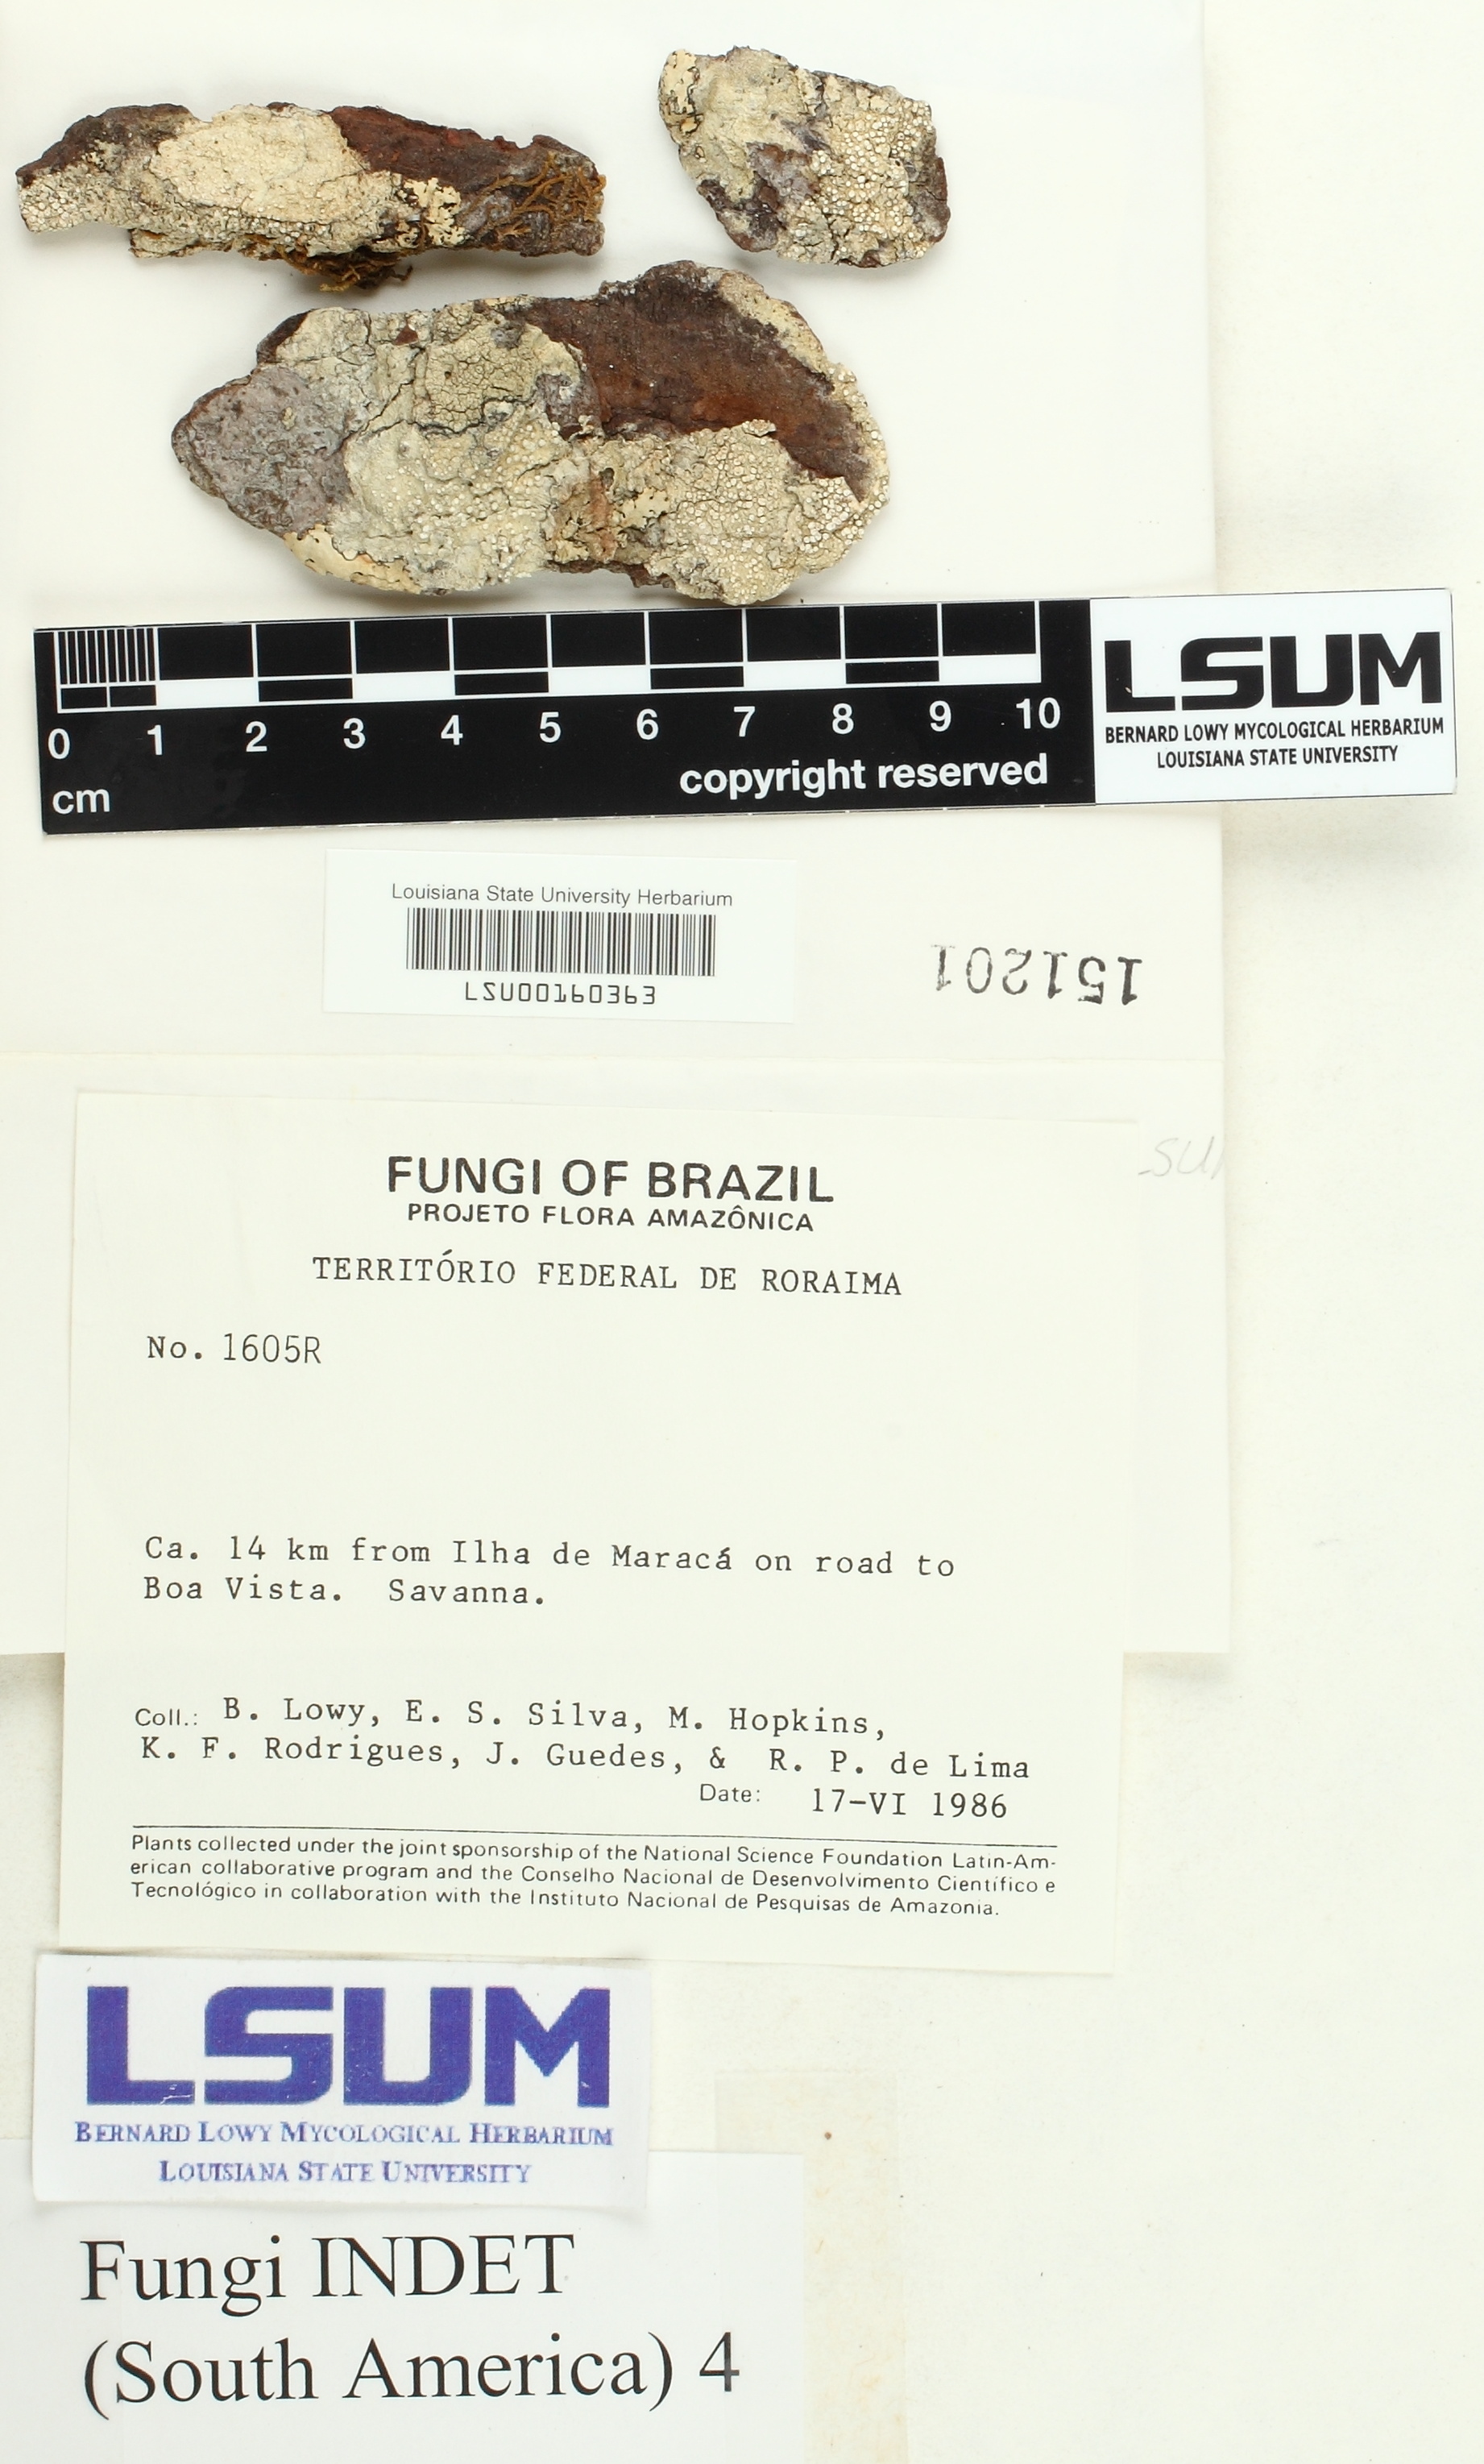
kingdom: Fungi
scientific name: Fungi
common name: Fungi
